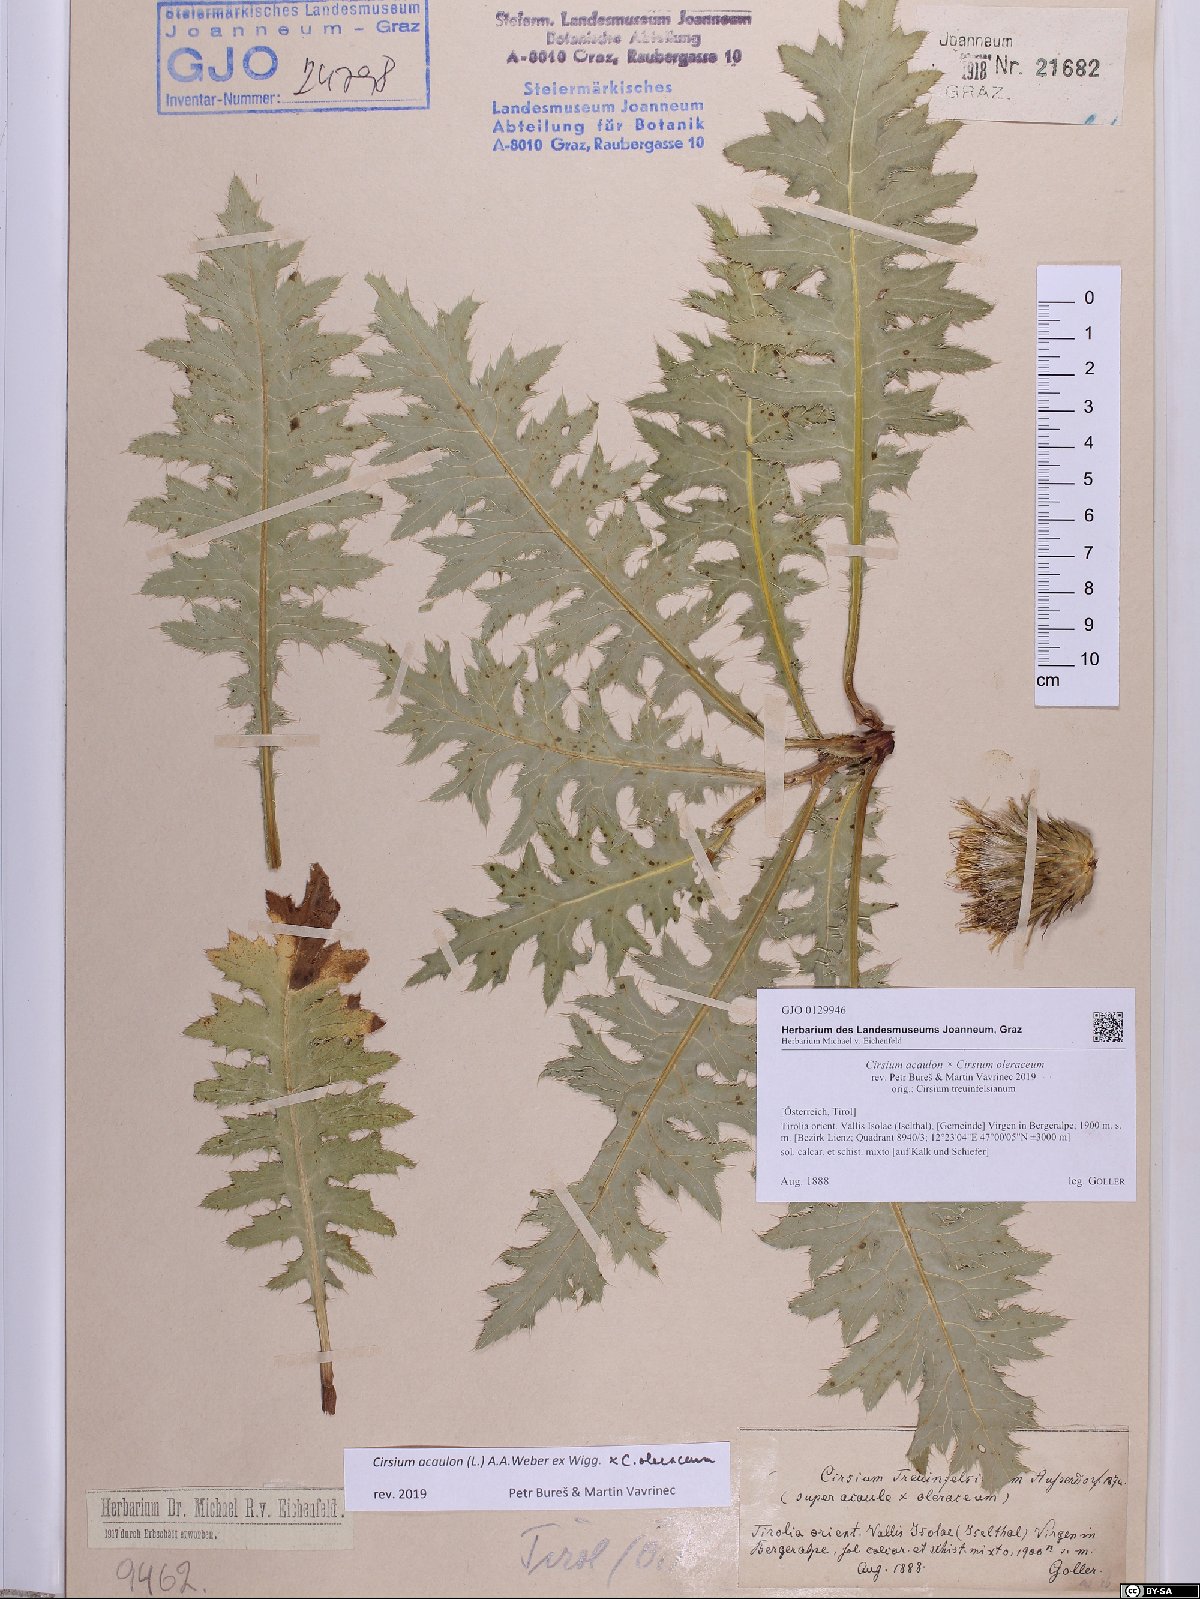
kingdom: Plantae
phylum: Tracheophyta
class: Magnoliopsida
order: Asterales
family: Asteraceae
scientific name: Asteraceae
